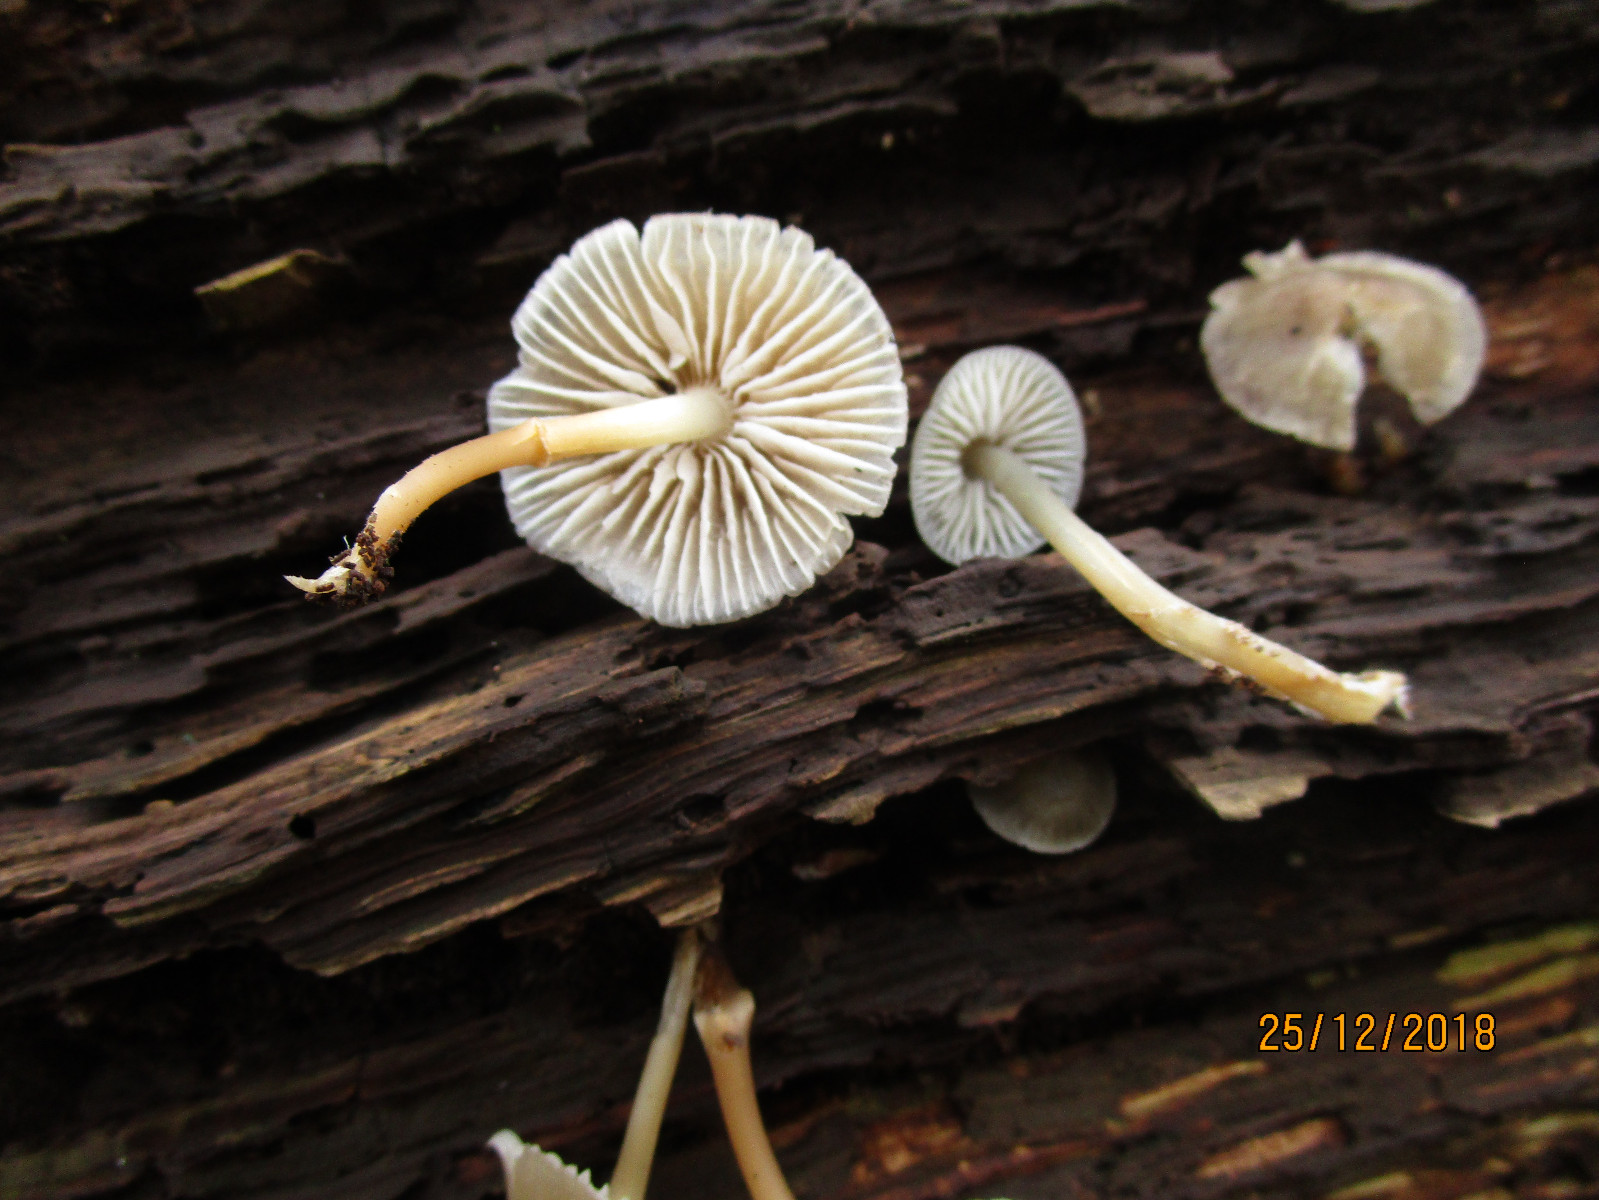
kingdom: Fungi
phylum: Basidiomycota
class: Agaricomycetes
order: Agaricales
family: Mycenaceae
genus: Mycena
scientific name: Mycena
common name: huesvamp
